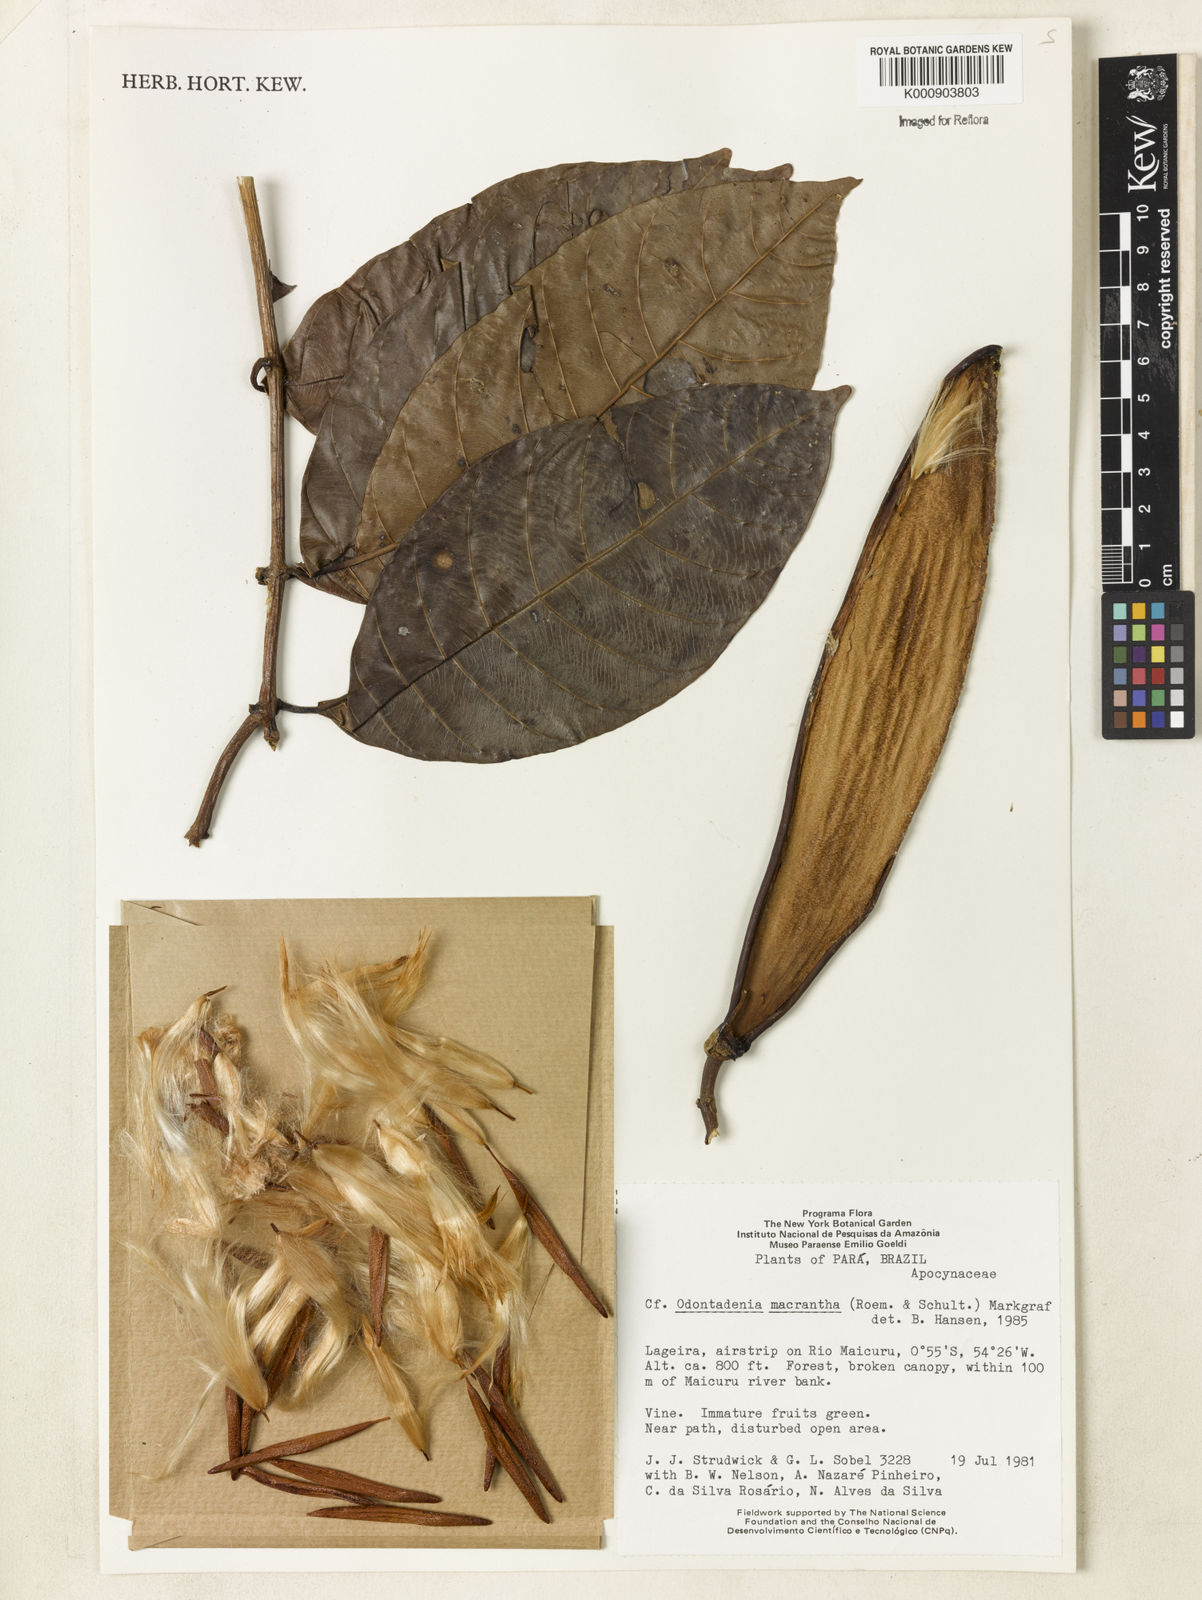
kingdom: Plantae
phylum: Tracheophyta
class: Magnoliopsida
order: Gentianales
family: Apocynaceae
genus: Odontadenia
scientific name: Odontadenia semidigyna
